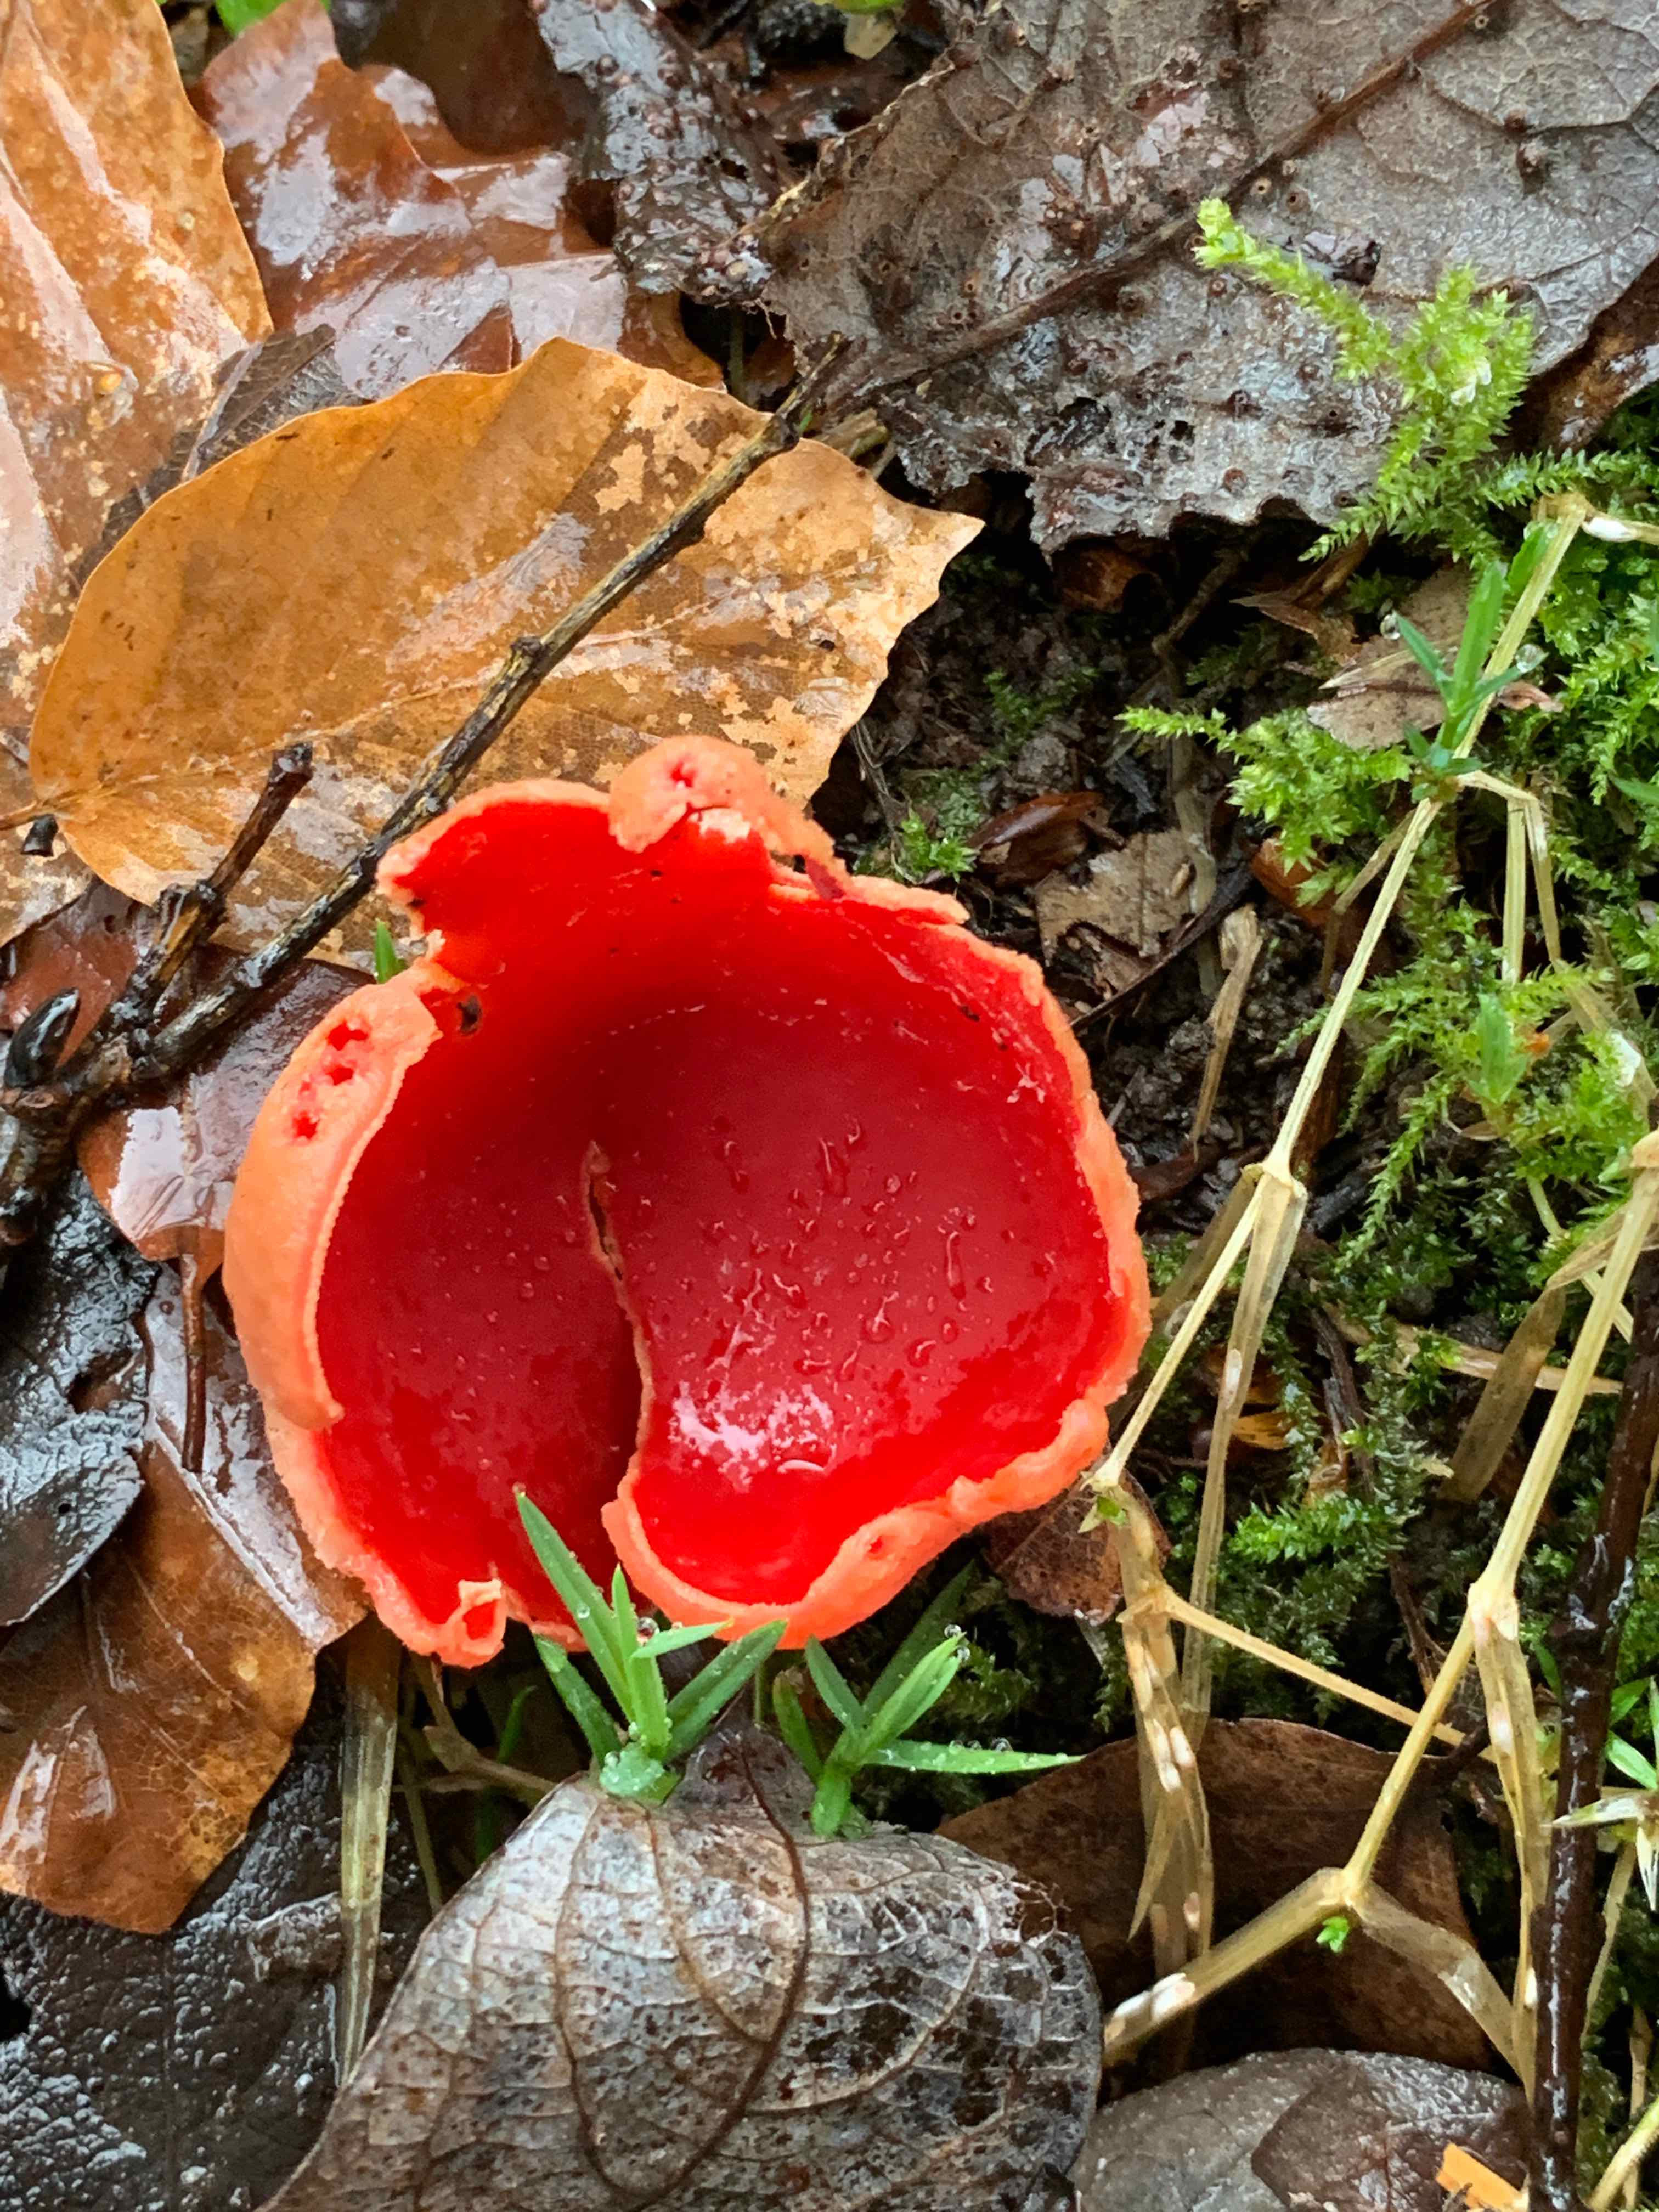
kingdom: Fungi
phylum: Ascomycota
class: Pezizomycetes
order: Pezizales
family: Sarcoscyphaceae
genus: Sarcoscypha
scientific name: Sarcoscypha
